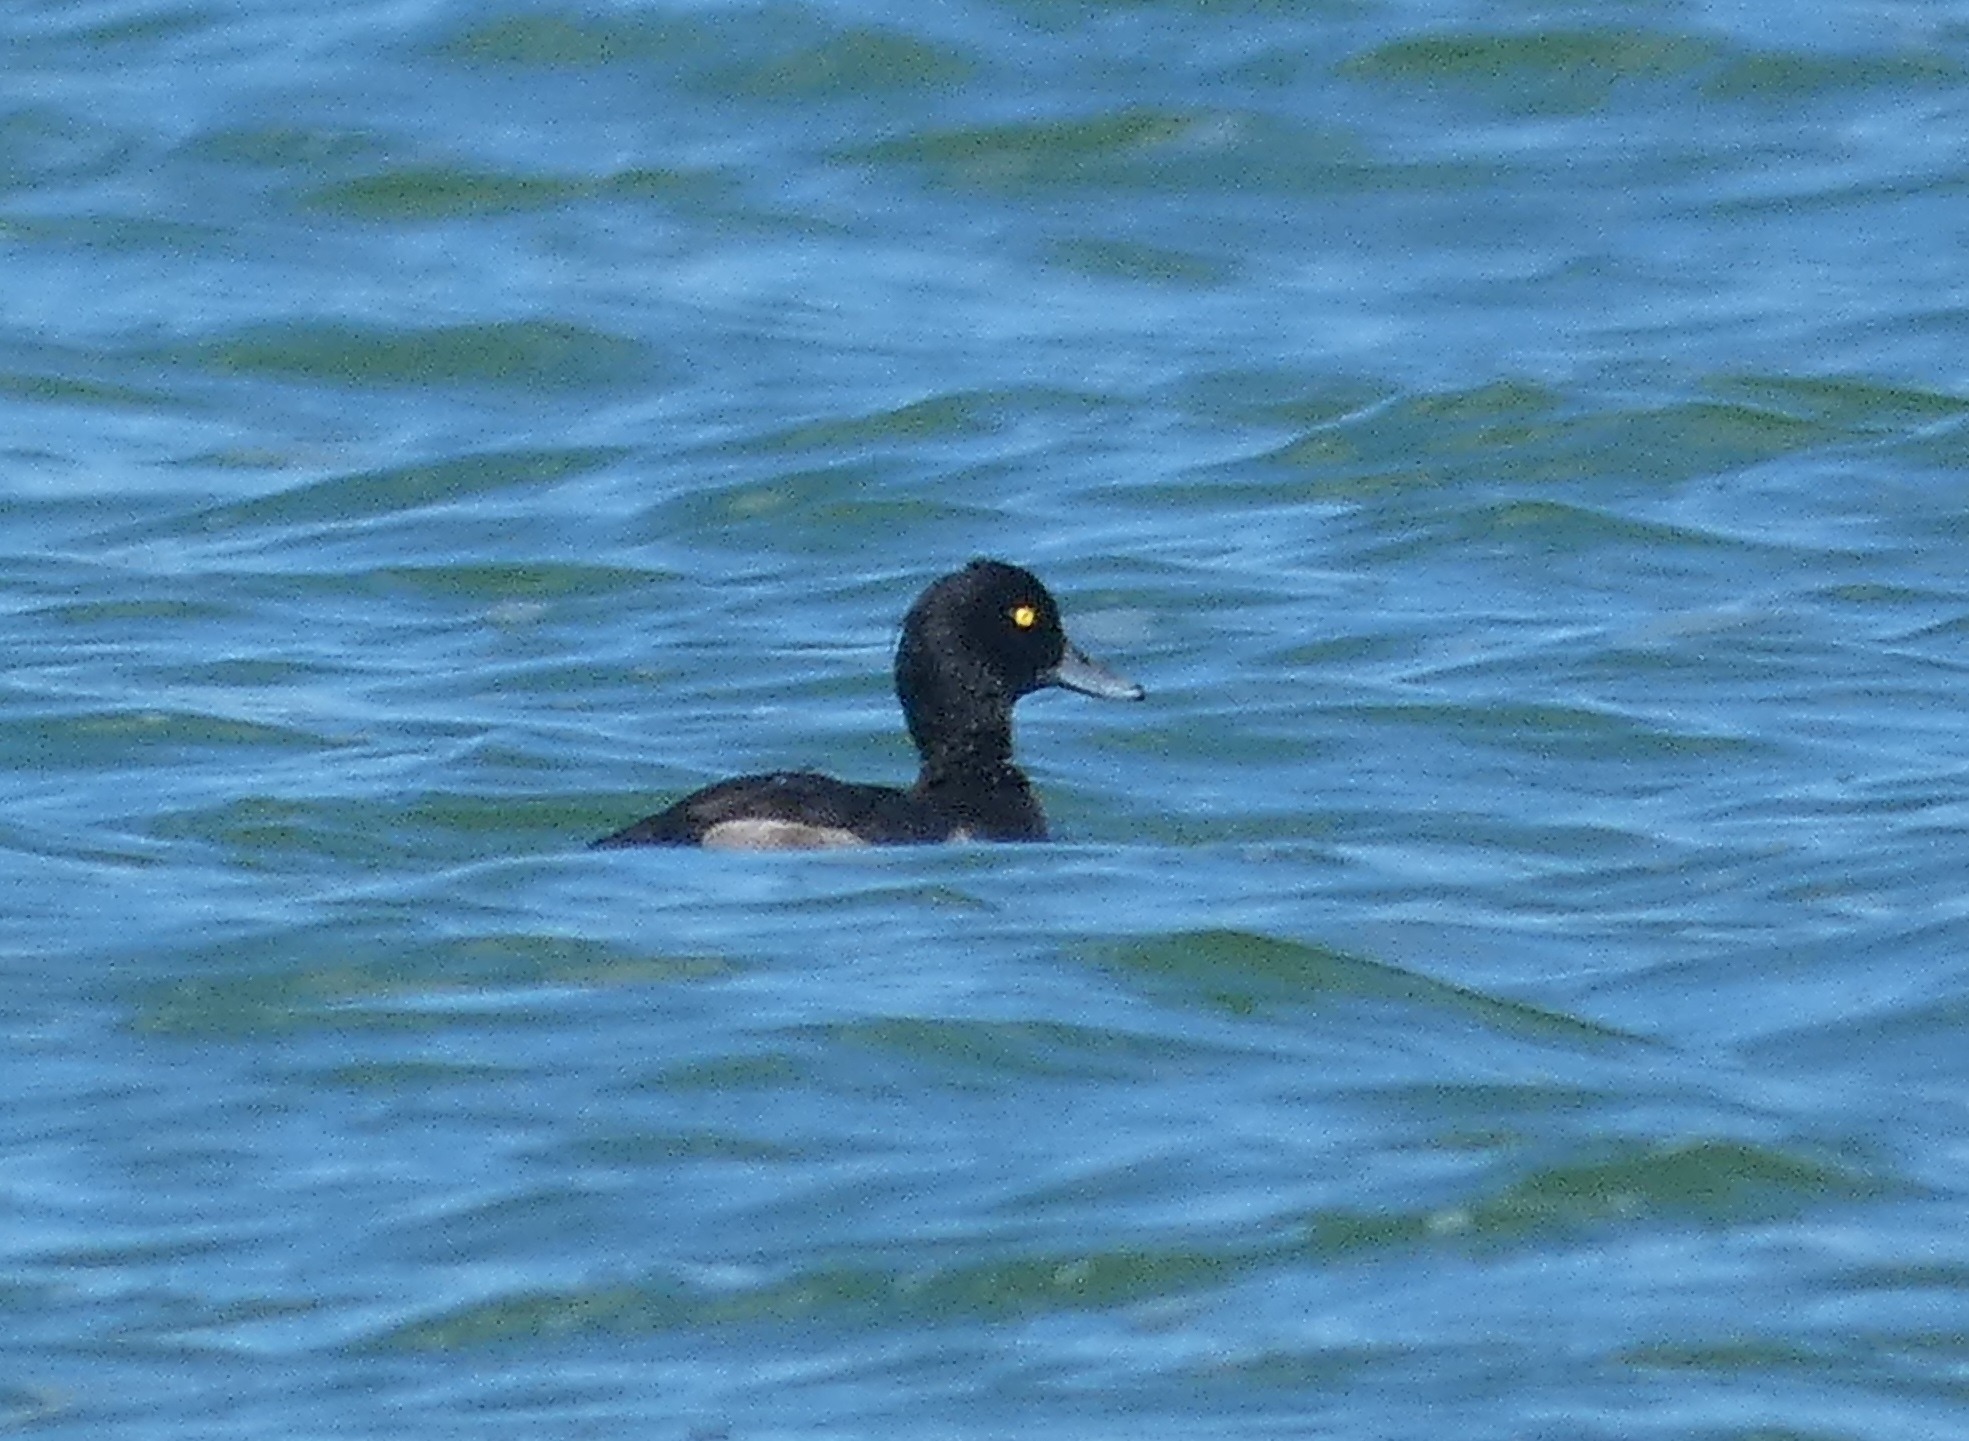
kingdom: Animalia
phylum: Chordata
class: Aves
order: Anseriformes
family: Anatidae
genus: Aythya
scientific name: Aythya fuligula
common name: Troldand
